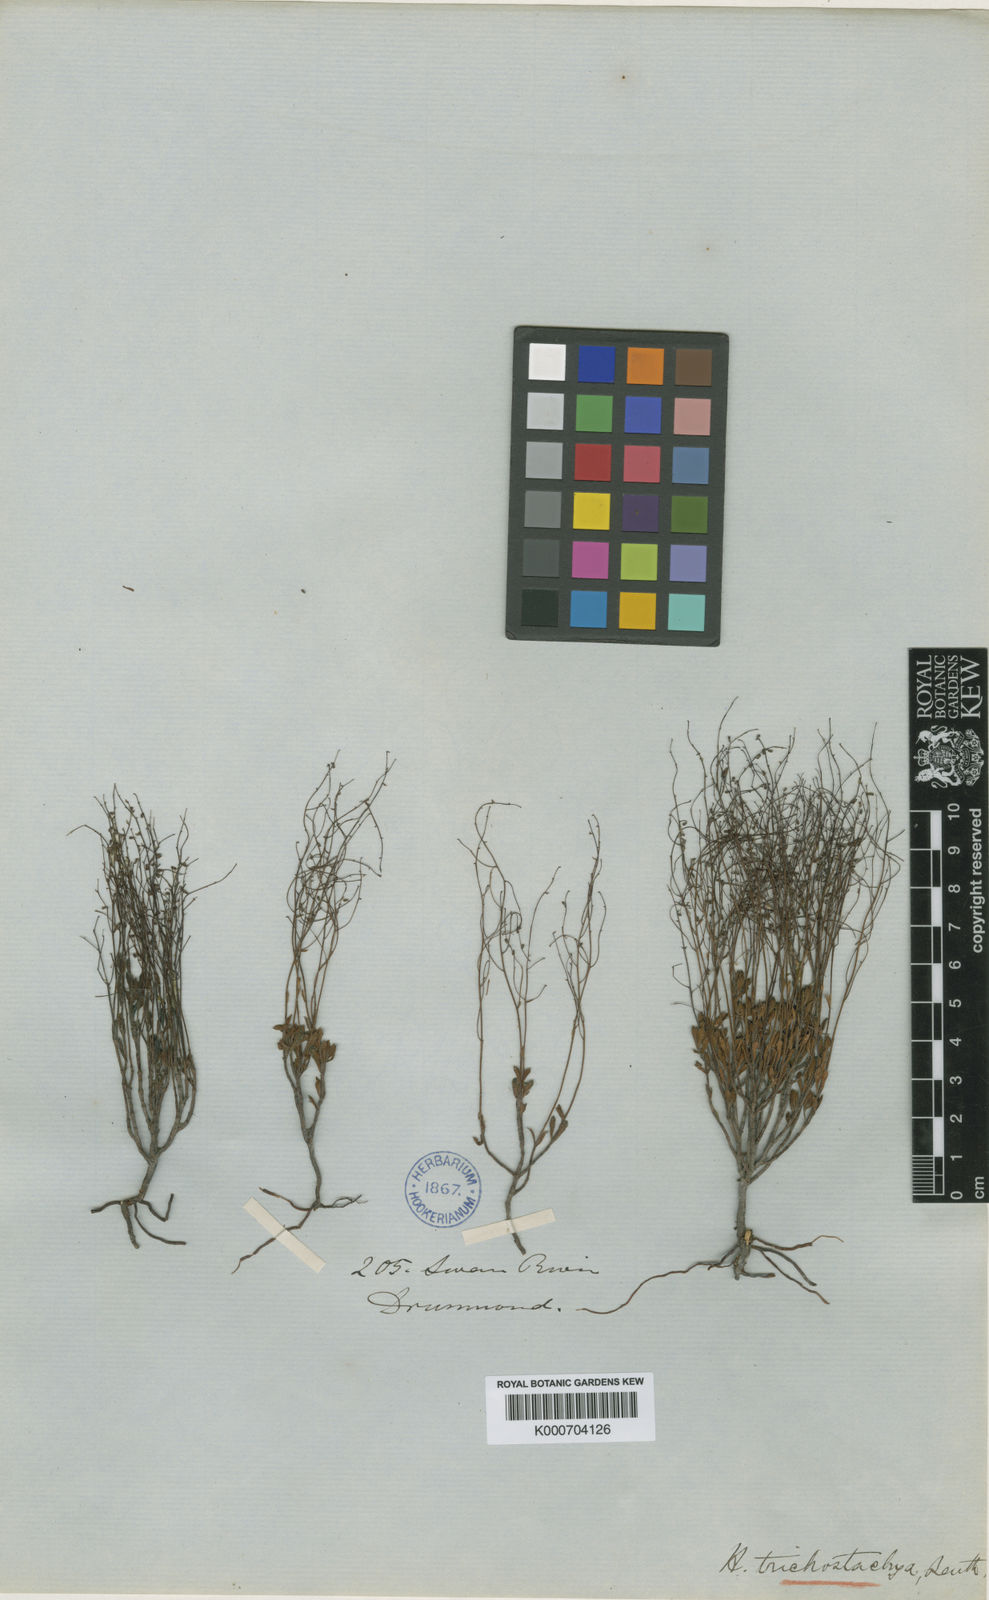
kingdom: Plantae
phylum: Tracheophyta
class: Magnoliopsida
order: Saxifragales
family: Haloragaceae
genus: Gonocarpus
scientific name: Gonocarpus trichostachyus
